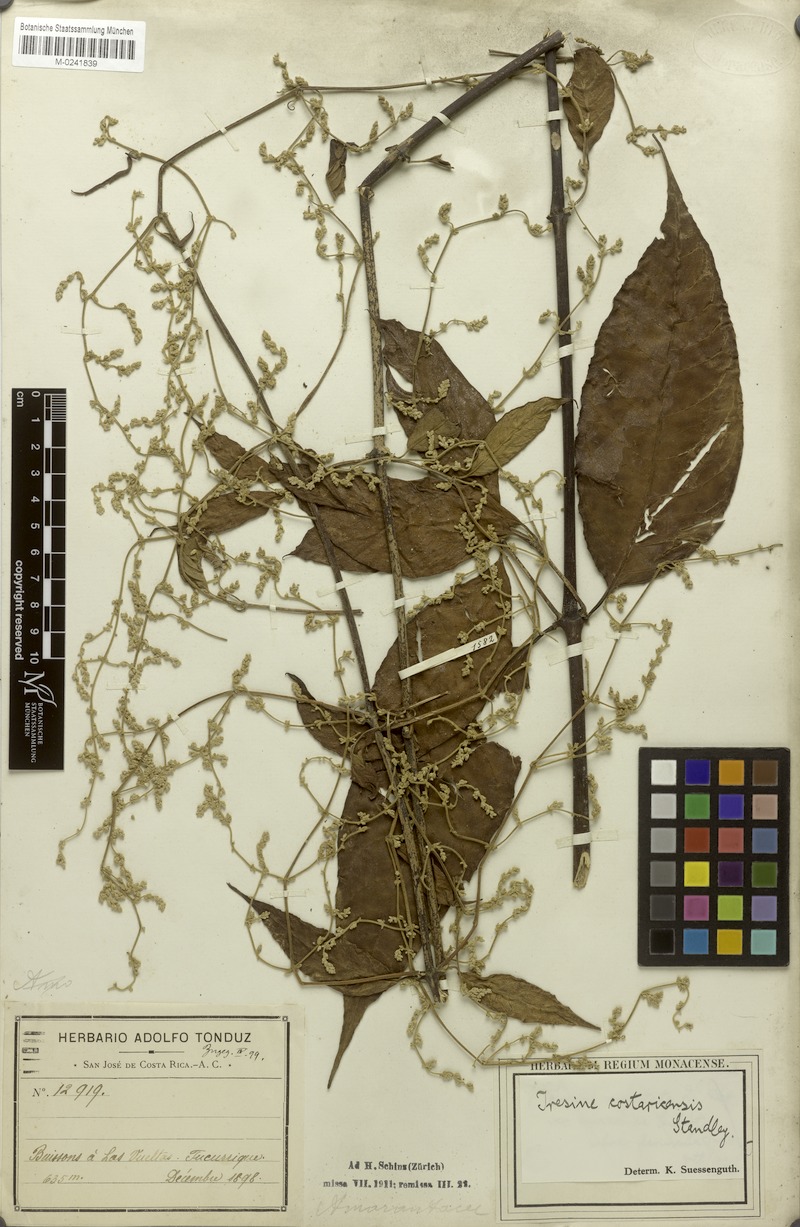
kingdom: Plantae
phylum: Tracheophyta
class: Magnoliopsida
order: Caryophyllales
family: Amaranthaceae
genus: Pedersenia
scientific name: Pedersenia costaricensis
